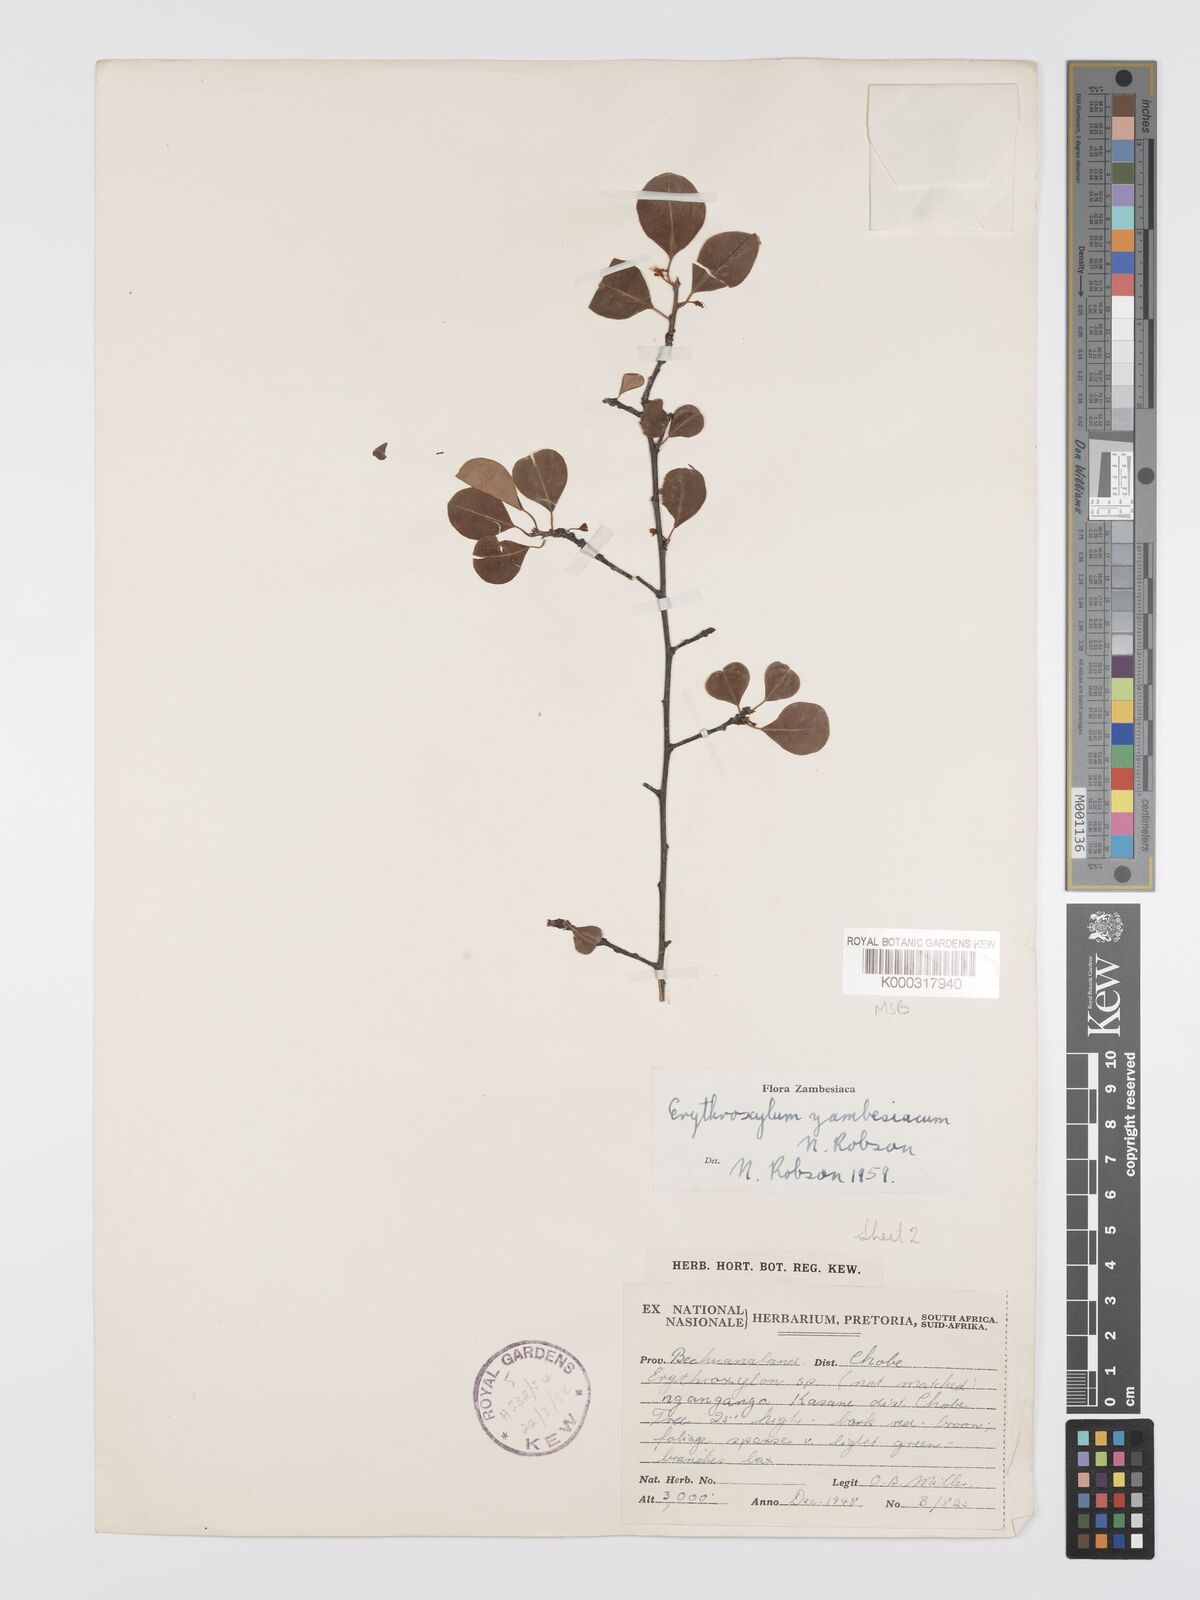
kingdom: Plantae
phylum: Tracheophyta
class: Magnoliopsida
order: Malpighiales
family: Erythroxylaceae
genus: Erythroxylum
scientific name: Erythroxylum zambesiacum
